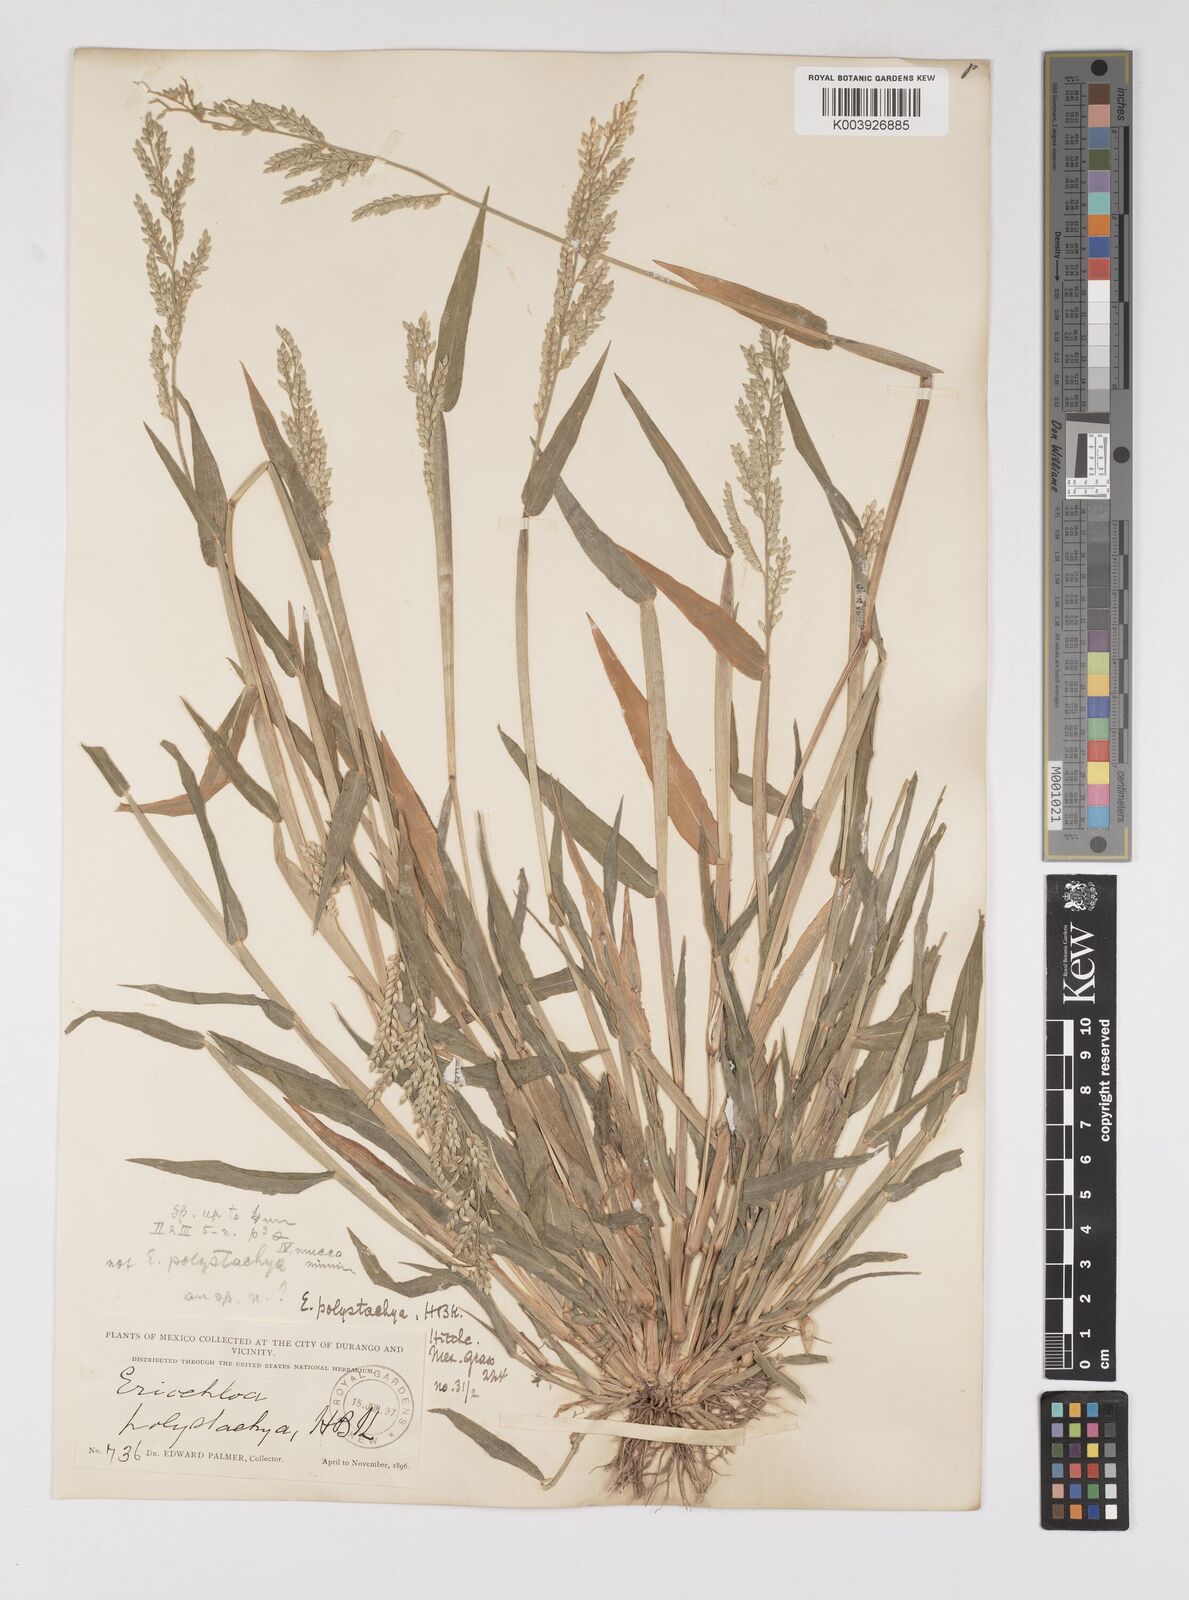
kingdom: Plantae
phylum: Tracheophyta
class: Liliopsida
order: Poales
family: Poaceae
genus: Eriochloa
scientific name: Eriochloa
